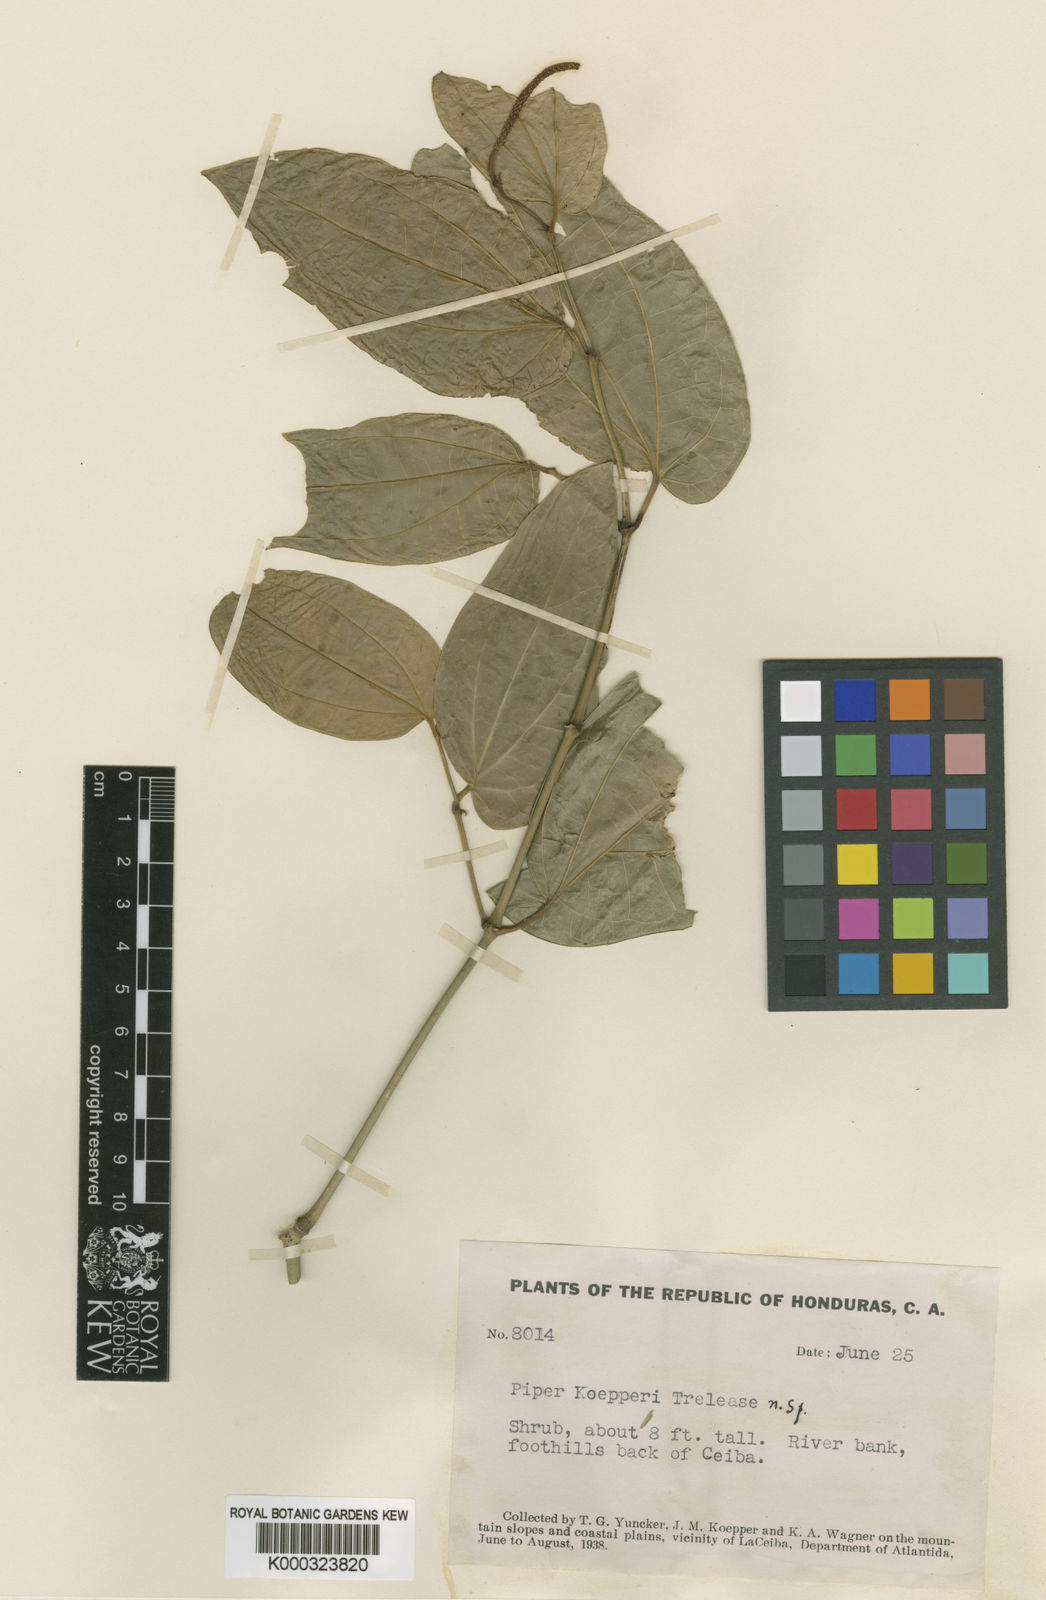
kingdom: Plantae
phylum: Tracheophyta
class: Magnoliopsida
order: Piperales
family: Piperaceae
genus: Piper
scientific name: Piper uhdei
